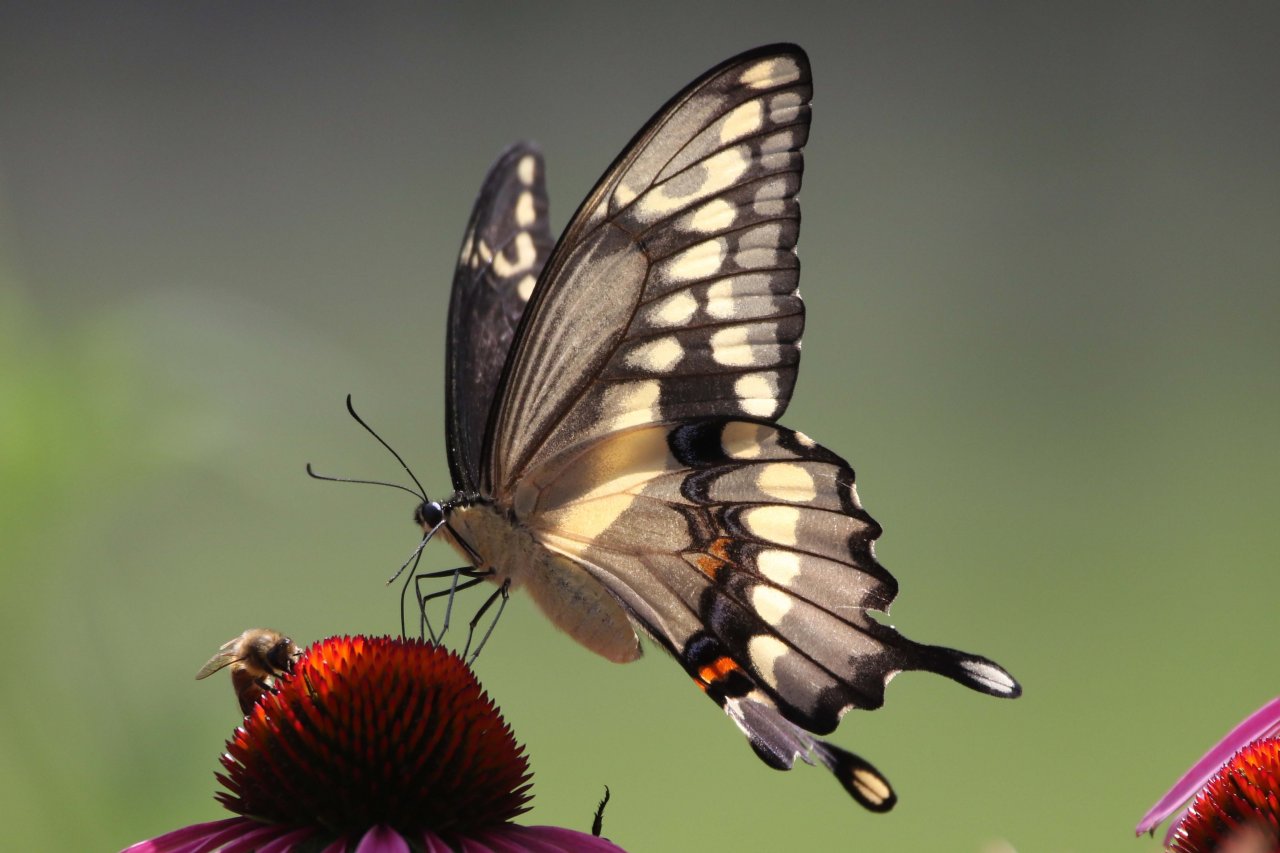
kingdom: Animalia
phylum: Arthropoda
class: Insecta
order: Lepidoptera
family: Papilionidae
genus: Papilio
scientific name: Papilio cresphontes
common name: Eastern Giant Swallowtail
